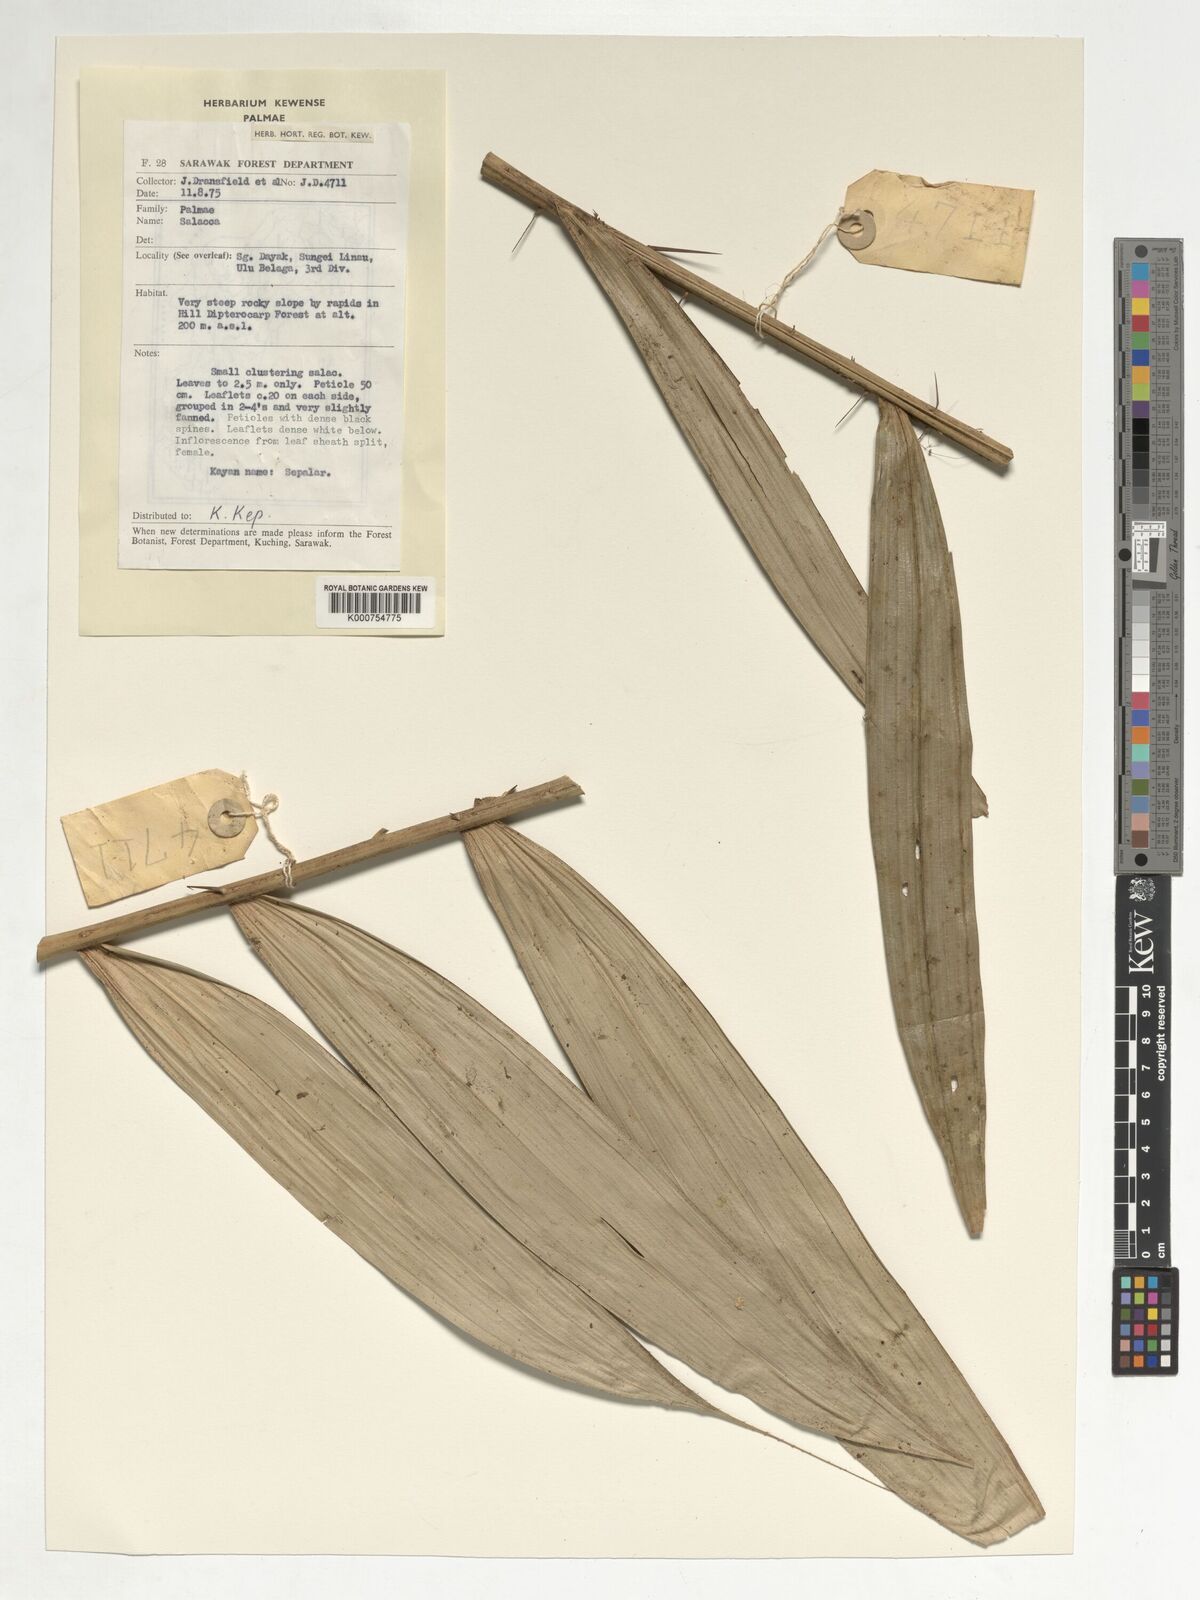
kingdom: Plantae
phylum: Tracheophyta
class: Liliopsida
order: Arecales
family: Arecaceae
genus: Salacca
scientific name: Salacca
